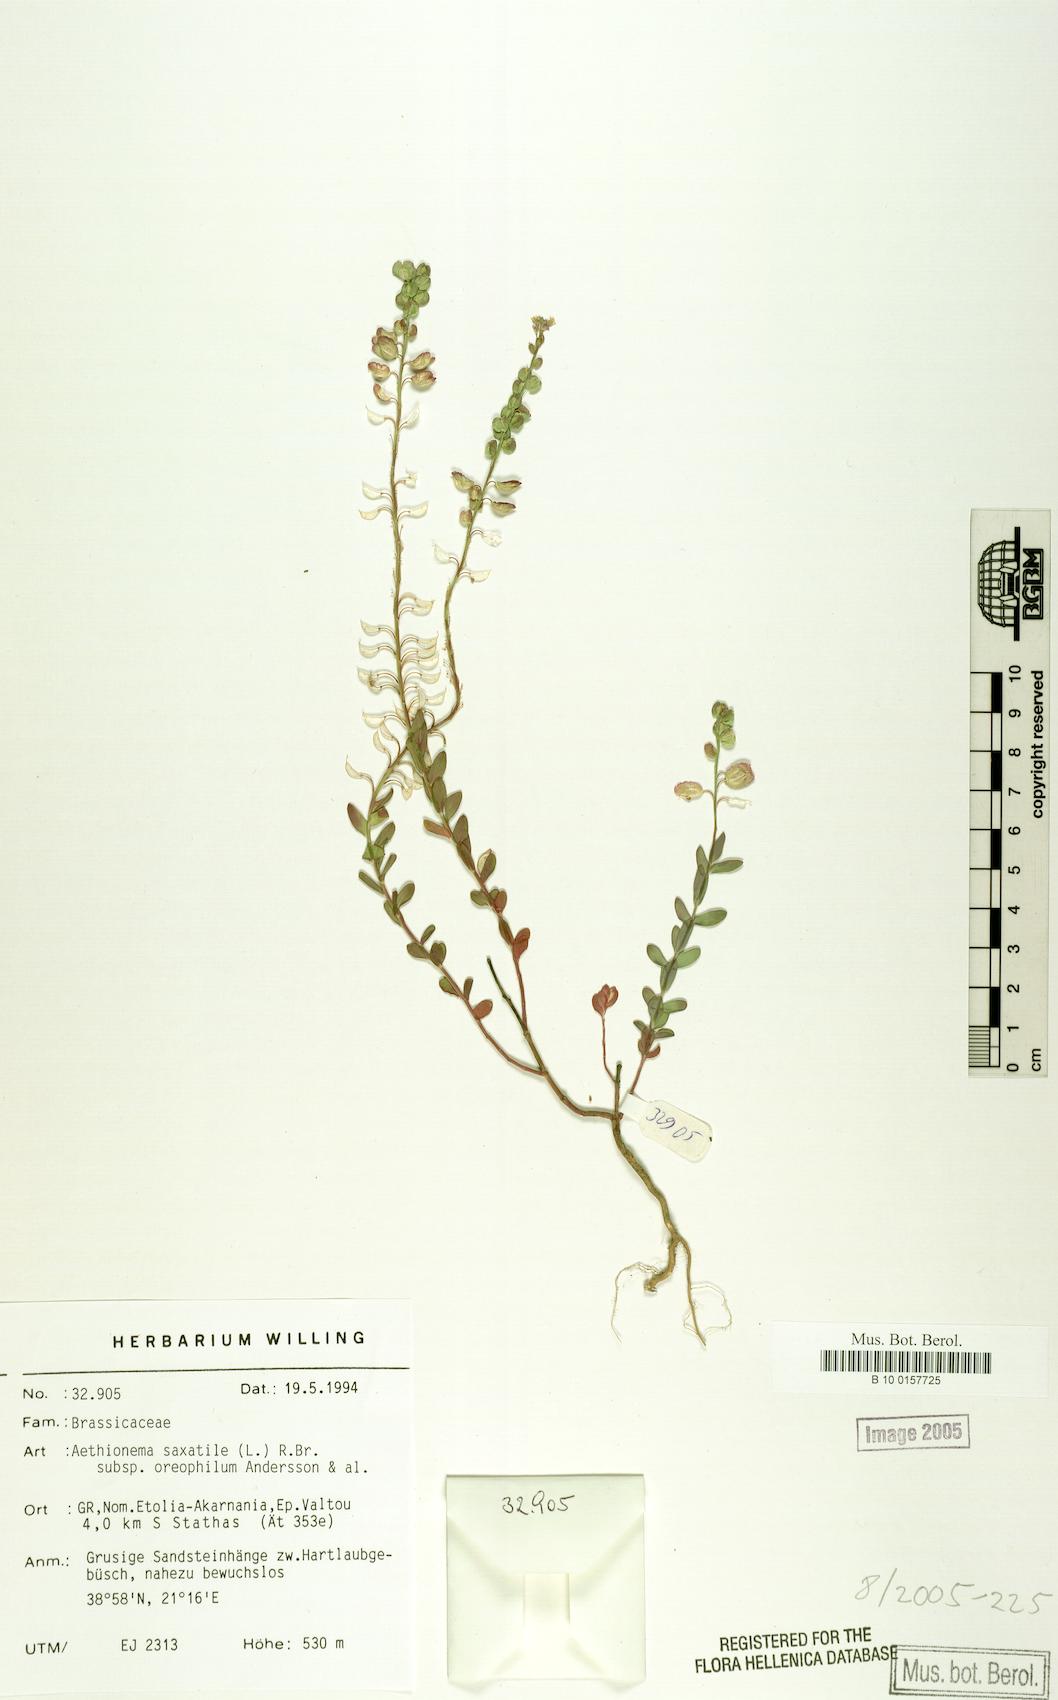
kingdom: Plantae
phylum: Tracheophyta
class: Magnoliopsida
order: Brassicales
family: Brassicaceae
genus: Aethionema
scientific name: Aethionema saxatile
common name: Burnt candytuft
